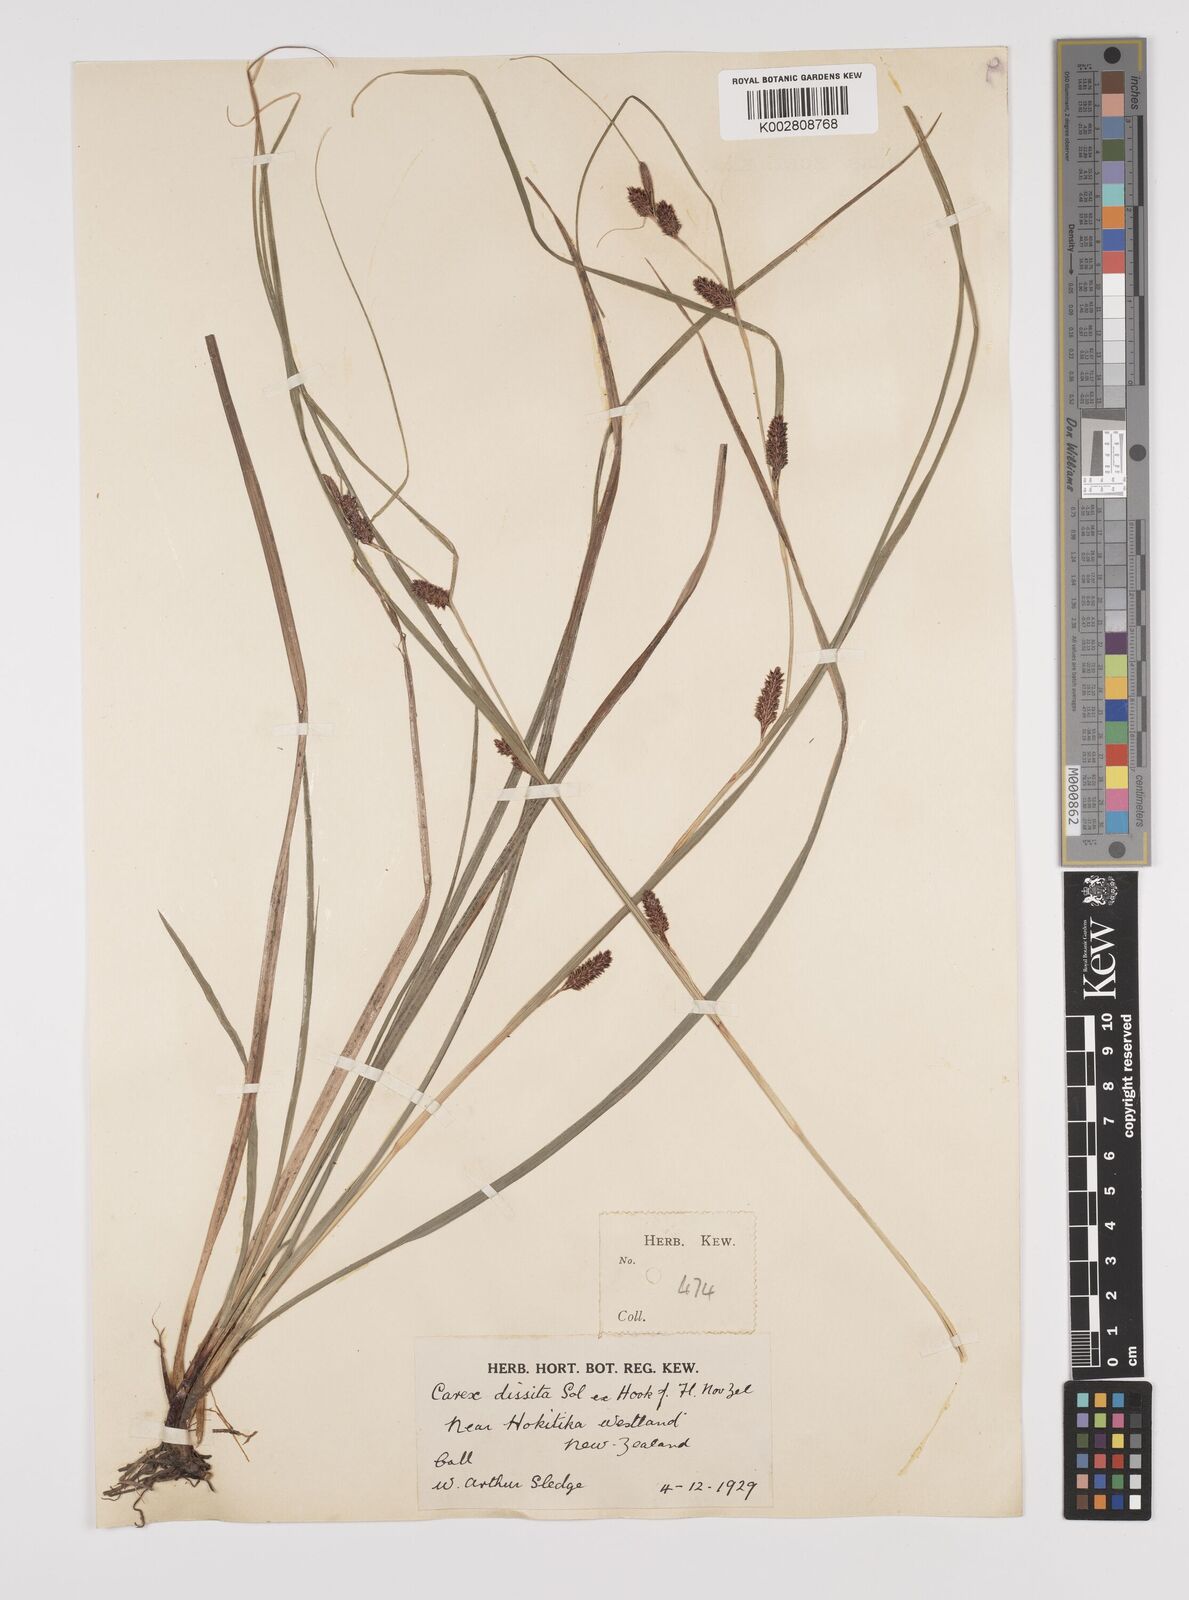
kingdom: Plantae
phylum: Tracheophyta
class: Liliopsida
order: Poales
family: Cyperaceae
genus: Carex
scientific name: Carex dissita
